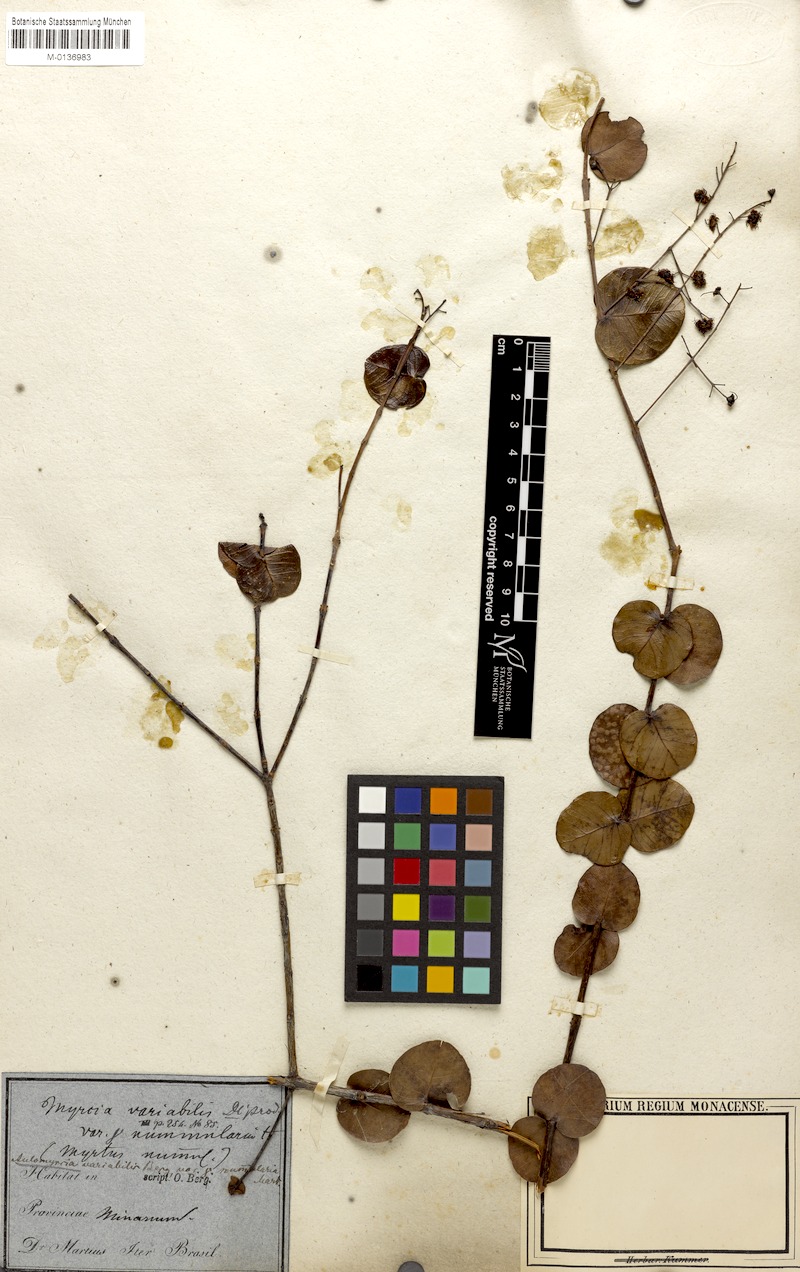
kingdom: Plantae
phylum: Tracheophyta
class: Magnoliopsida
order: Myrtales
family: Myrtaceae
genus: Myrcia
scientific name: Myrcia variabilis
